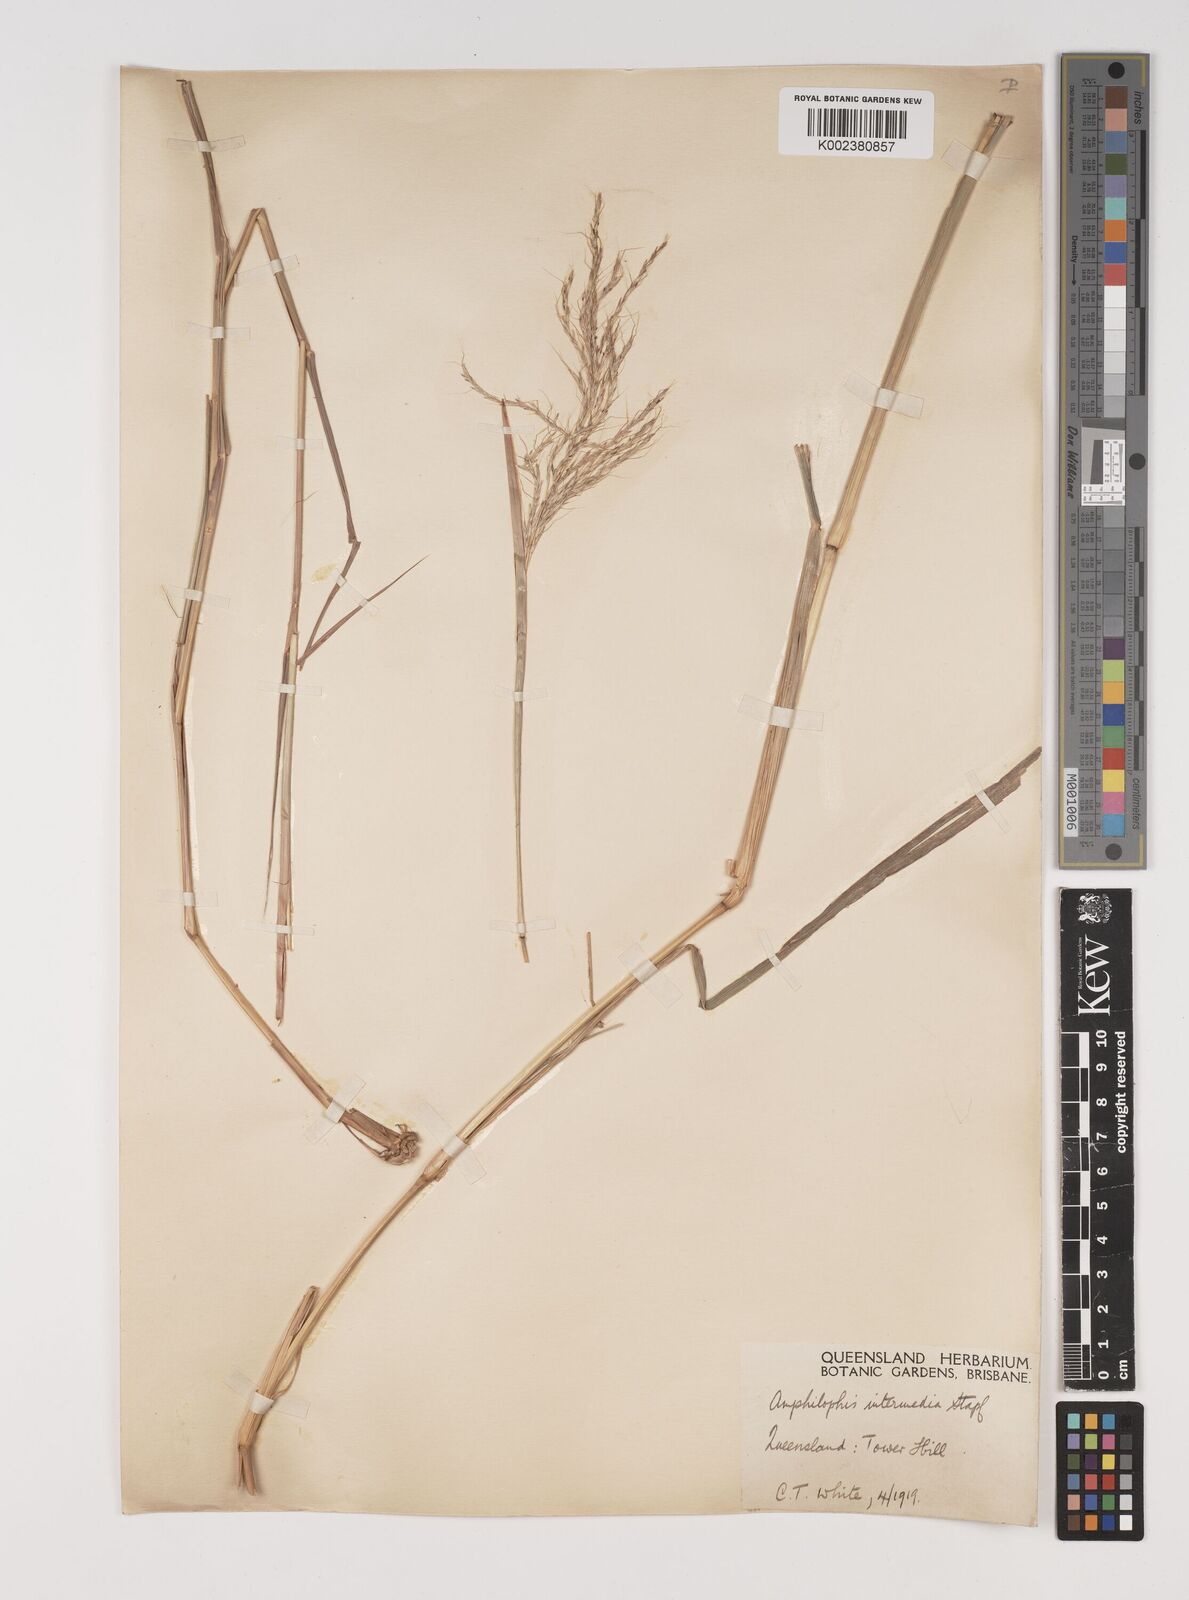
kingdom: Plantae
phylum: Tracheophyta
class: Liliopsida
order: Poales
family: Poaceae
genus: Bothriochloa
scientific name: Bothriochloa bladhii
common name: Caucasian bluestem
